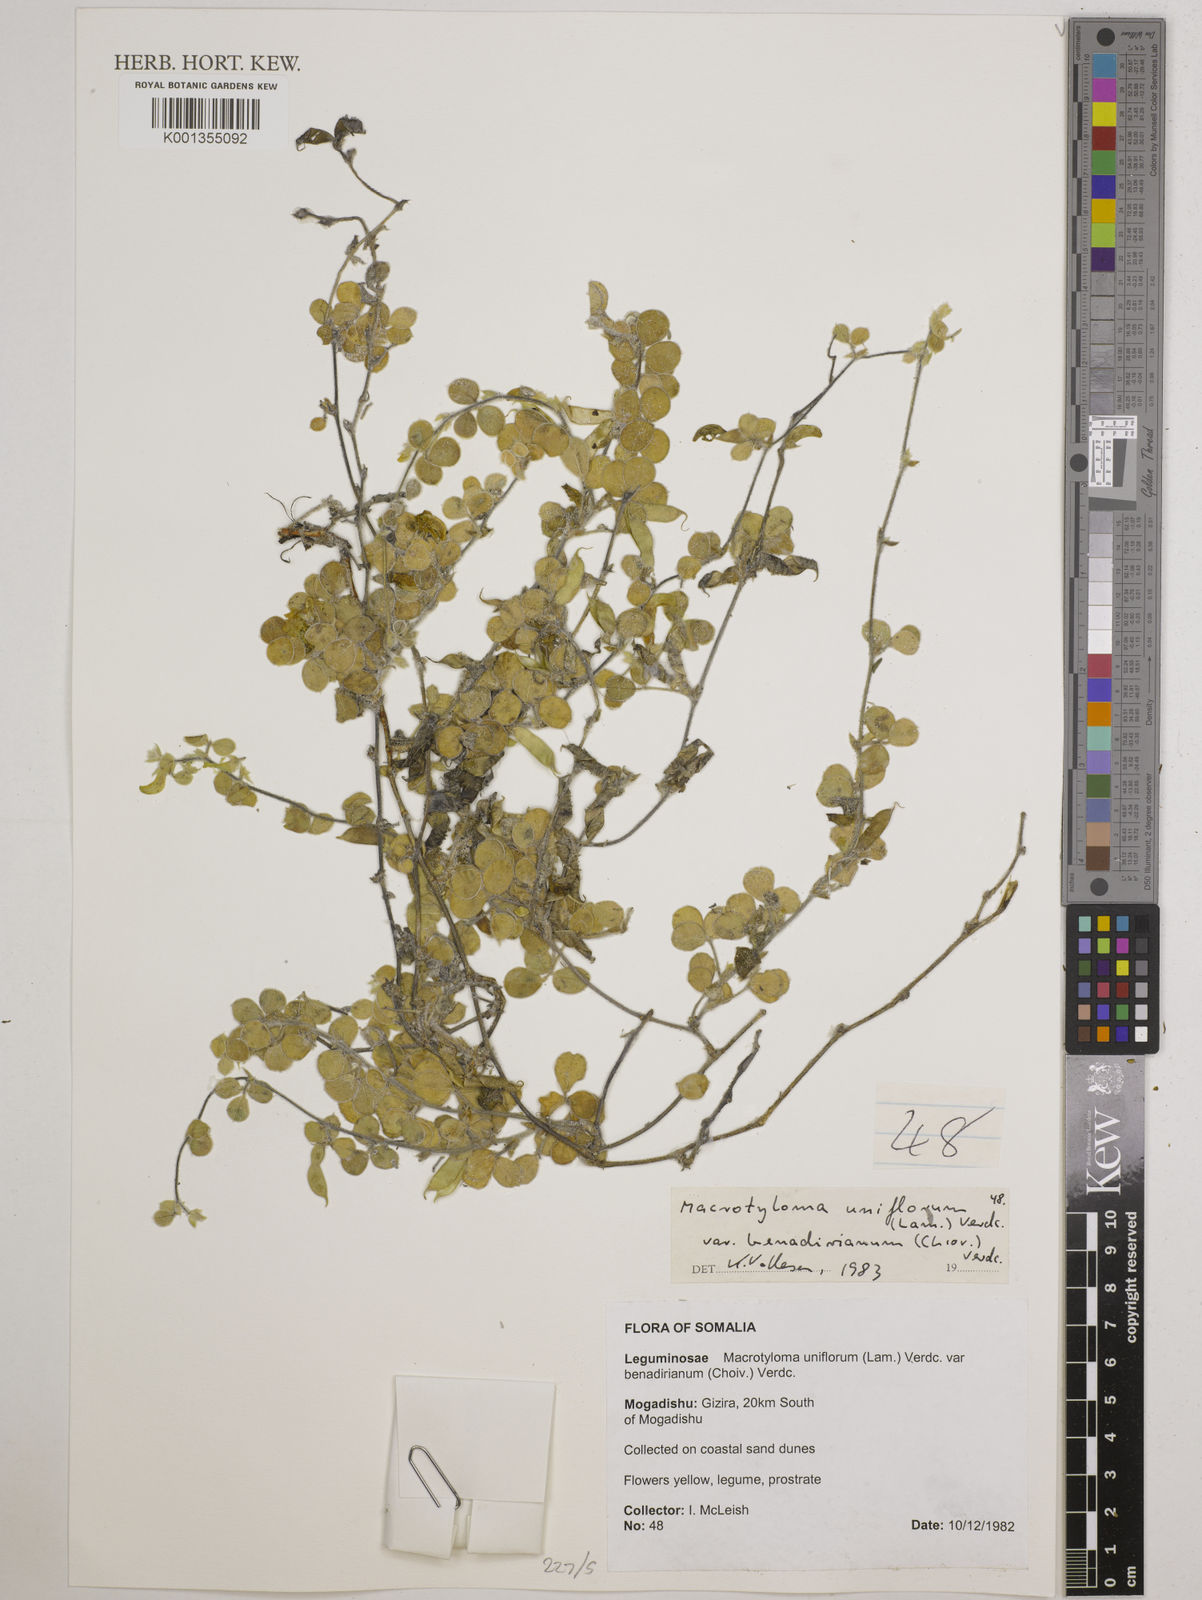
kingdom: Plantae
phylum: Tracheophyta
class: Magnoliopsida
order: Fabales
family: Fabaceae
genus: Macrotyloma
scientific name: Macrotyloma
